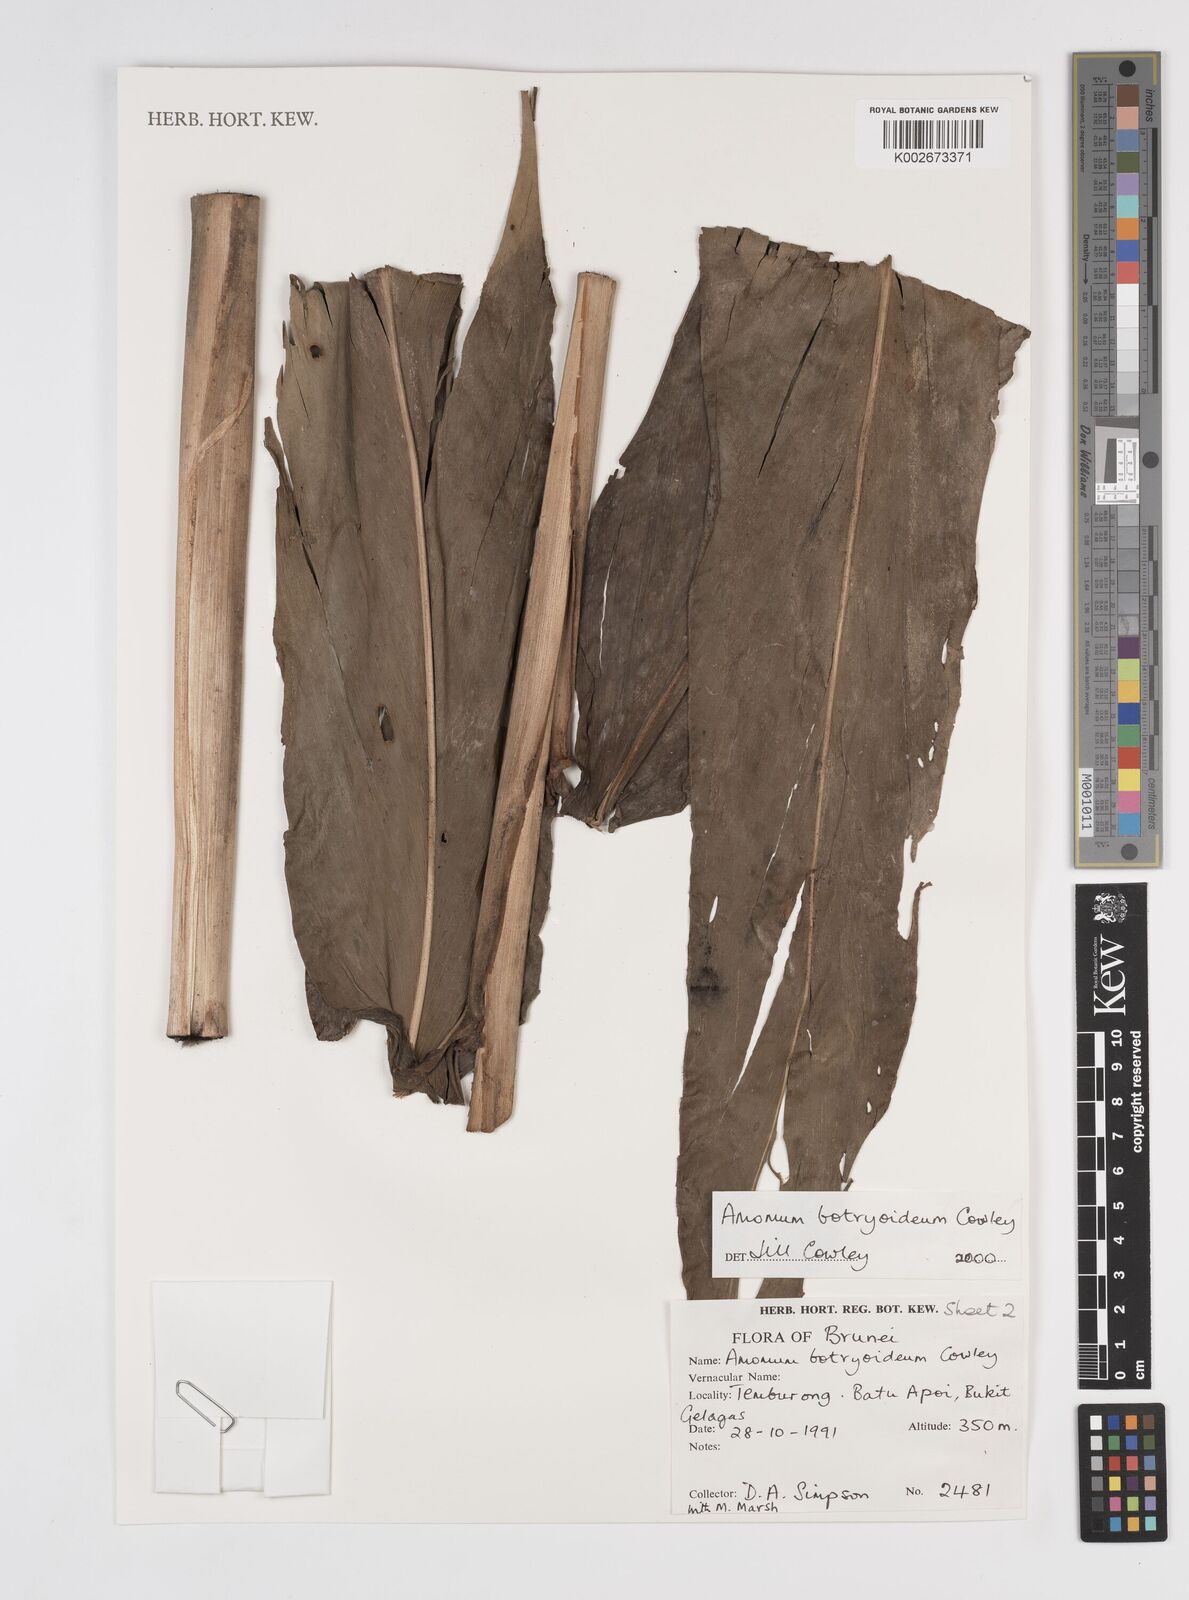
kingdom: Plantae
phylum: Tracheophyta
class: Liliopsida
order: Zingiberales
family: Zingiberaceae
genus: Meistera
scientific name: Meistera botryoidea
